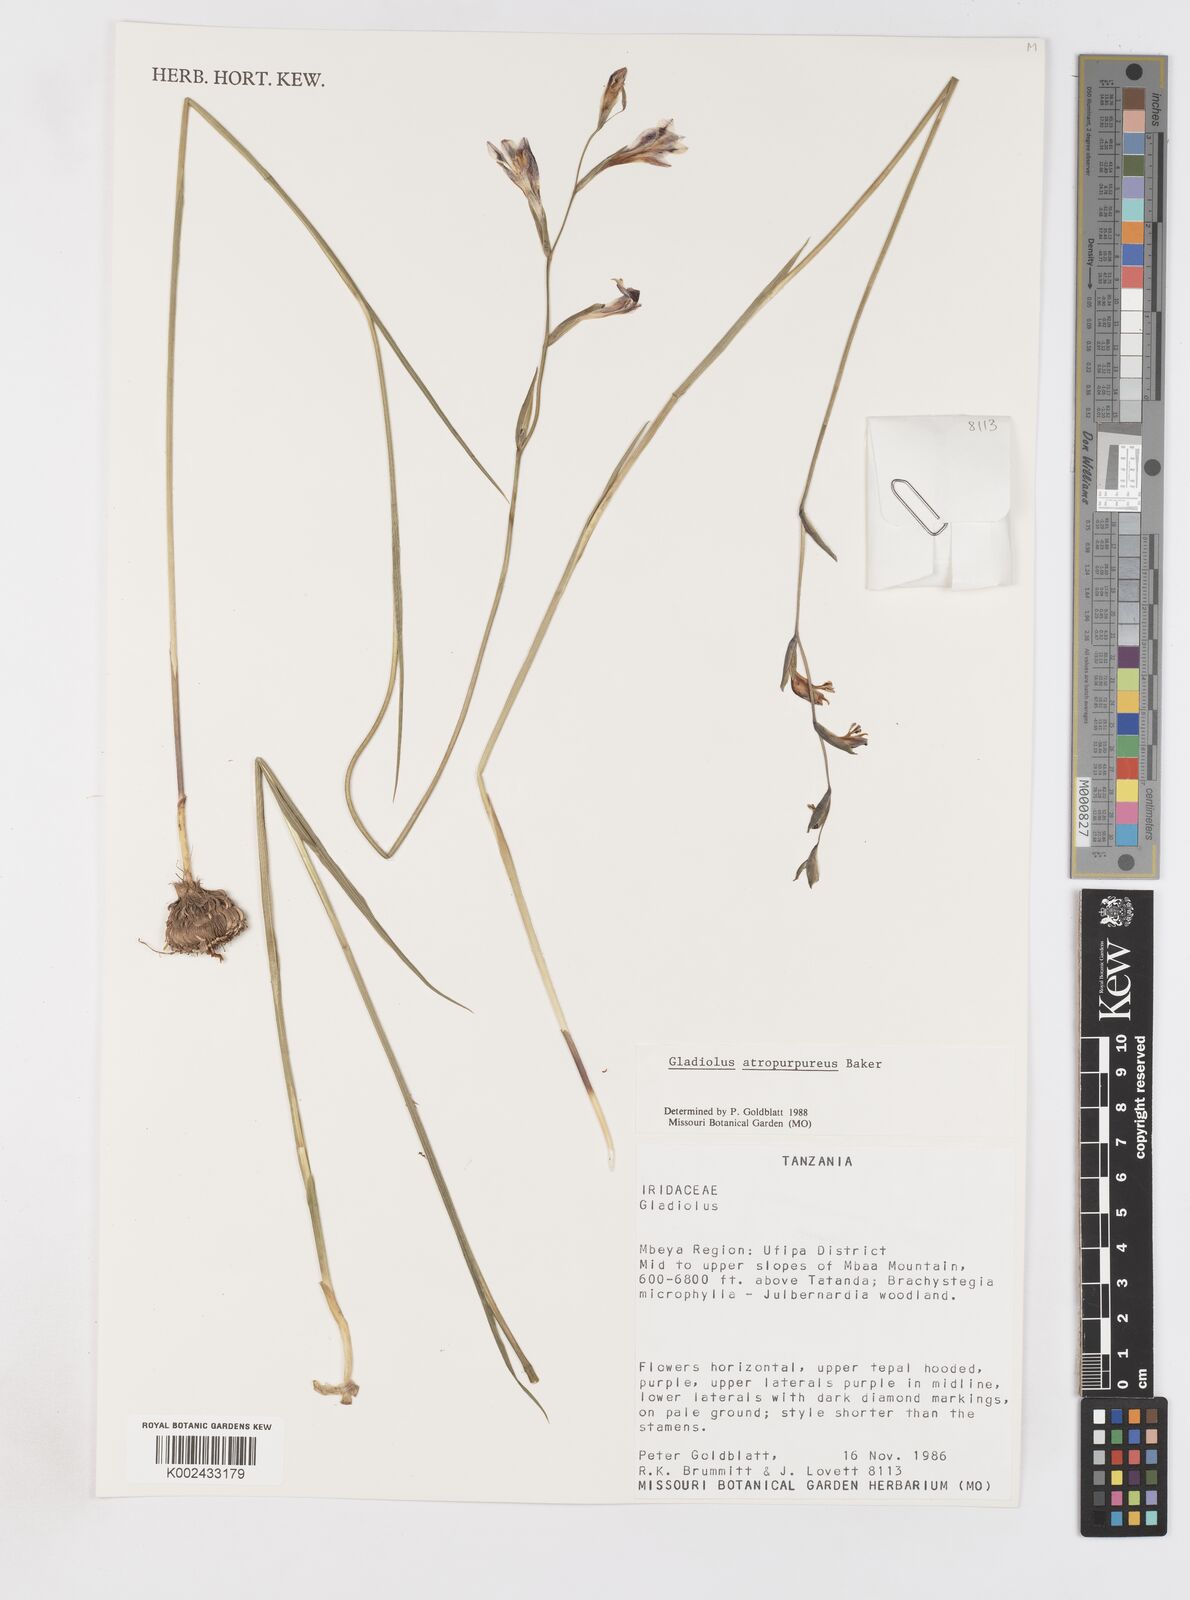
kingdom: Plantae
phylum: Tracheophyta
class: Liliopsida
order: Asparagales
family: Iridaceae
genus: Gladiolus
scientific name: Gladiolus atropurpureus
